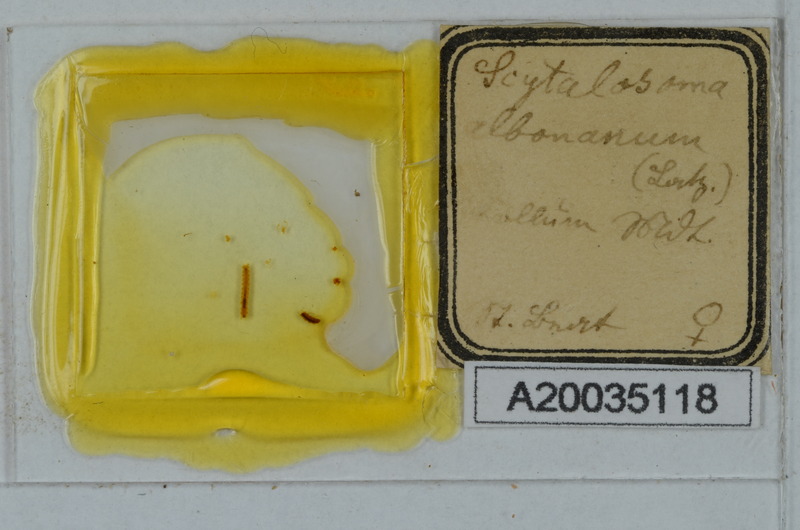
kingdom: Animalia
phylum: Arthropoda
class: Diplopoda
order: Polydesmida
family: Macrosternodesmidae
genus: Ophiodesmus
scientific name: Ophiodesmus albonanus
